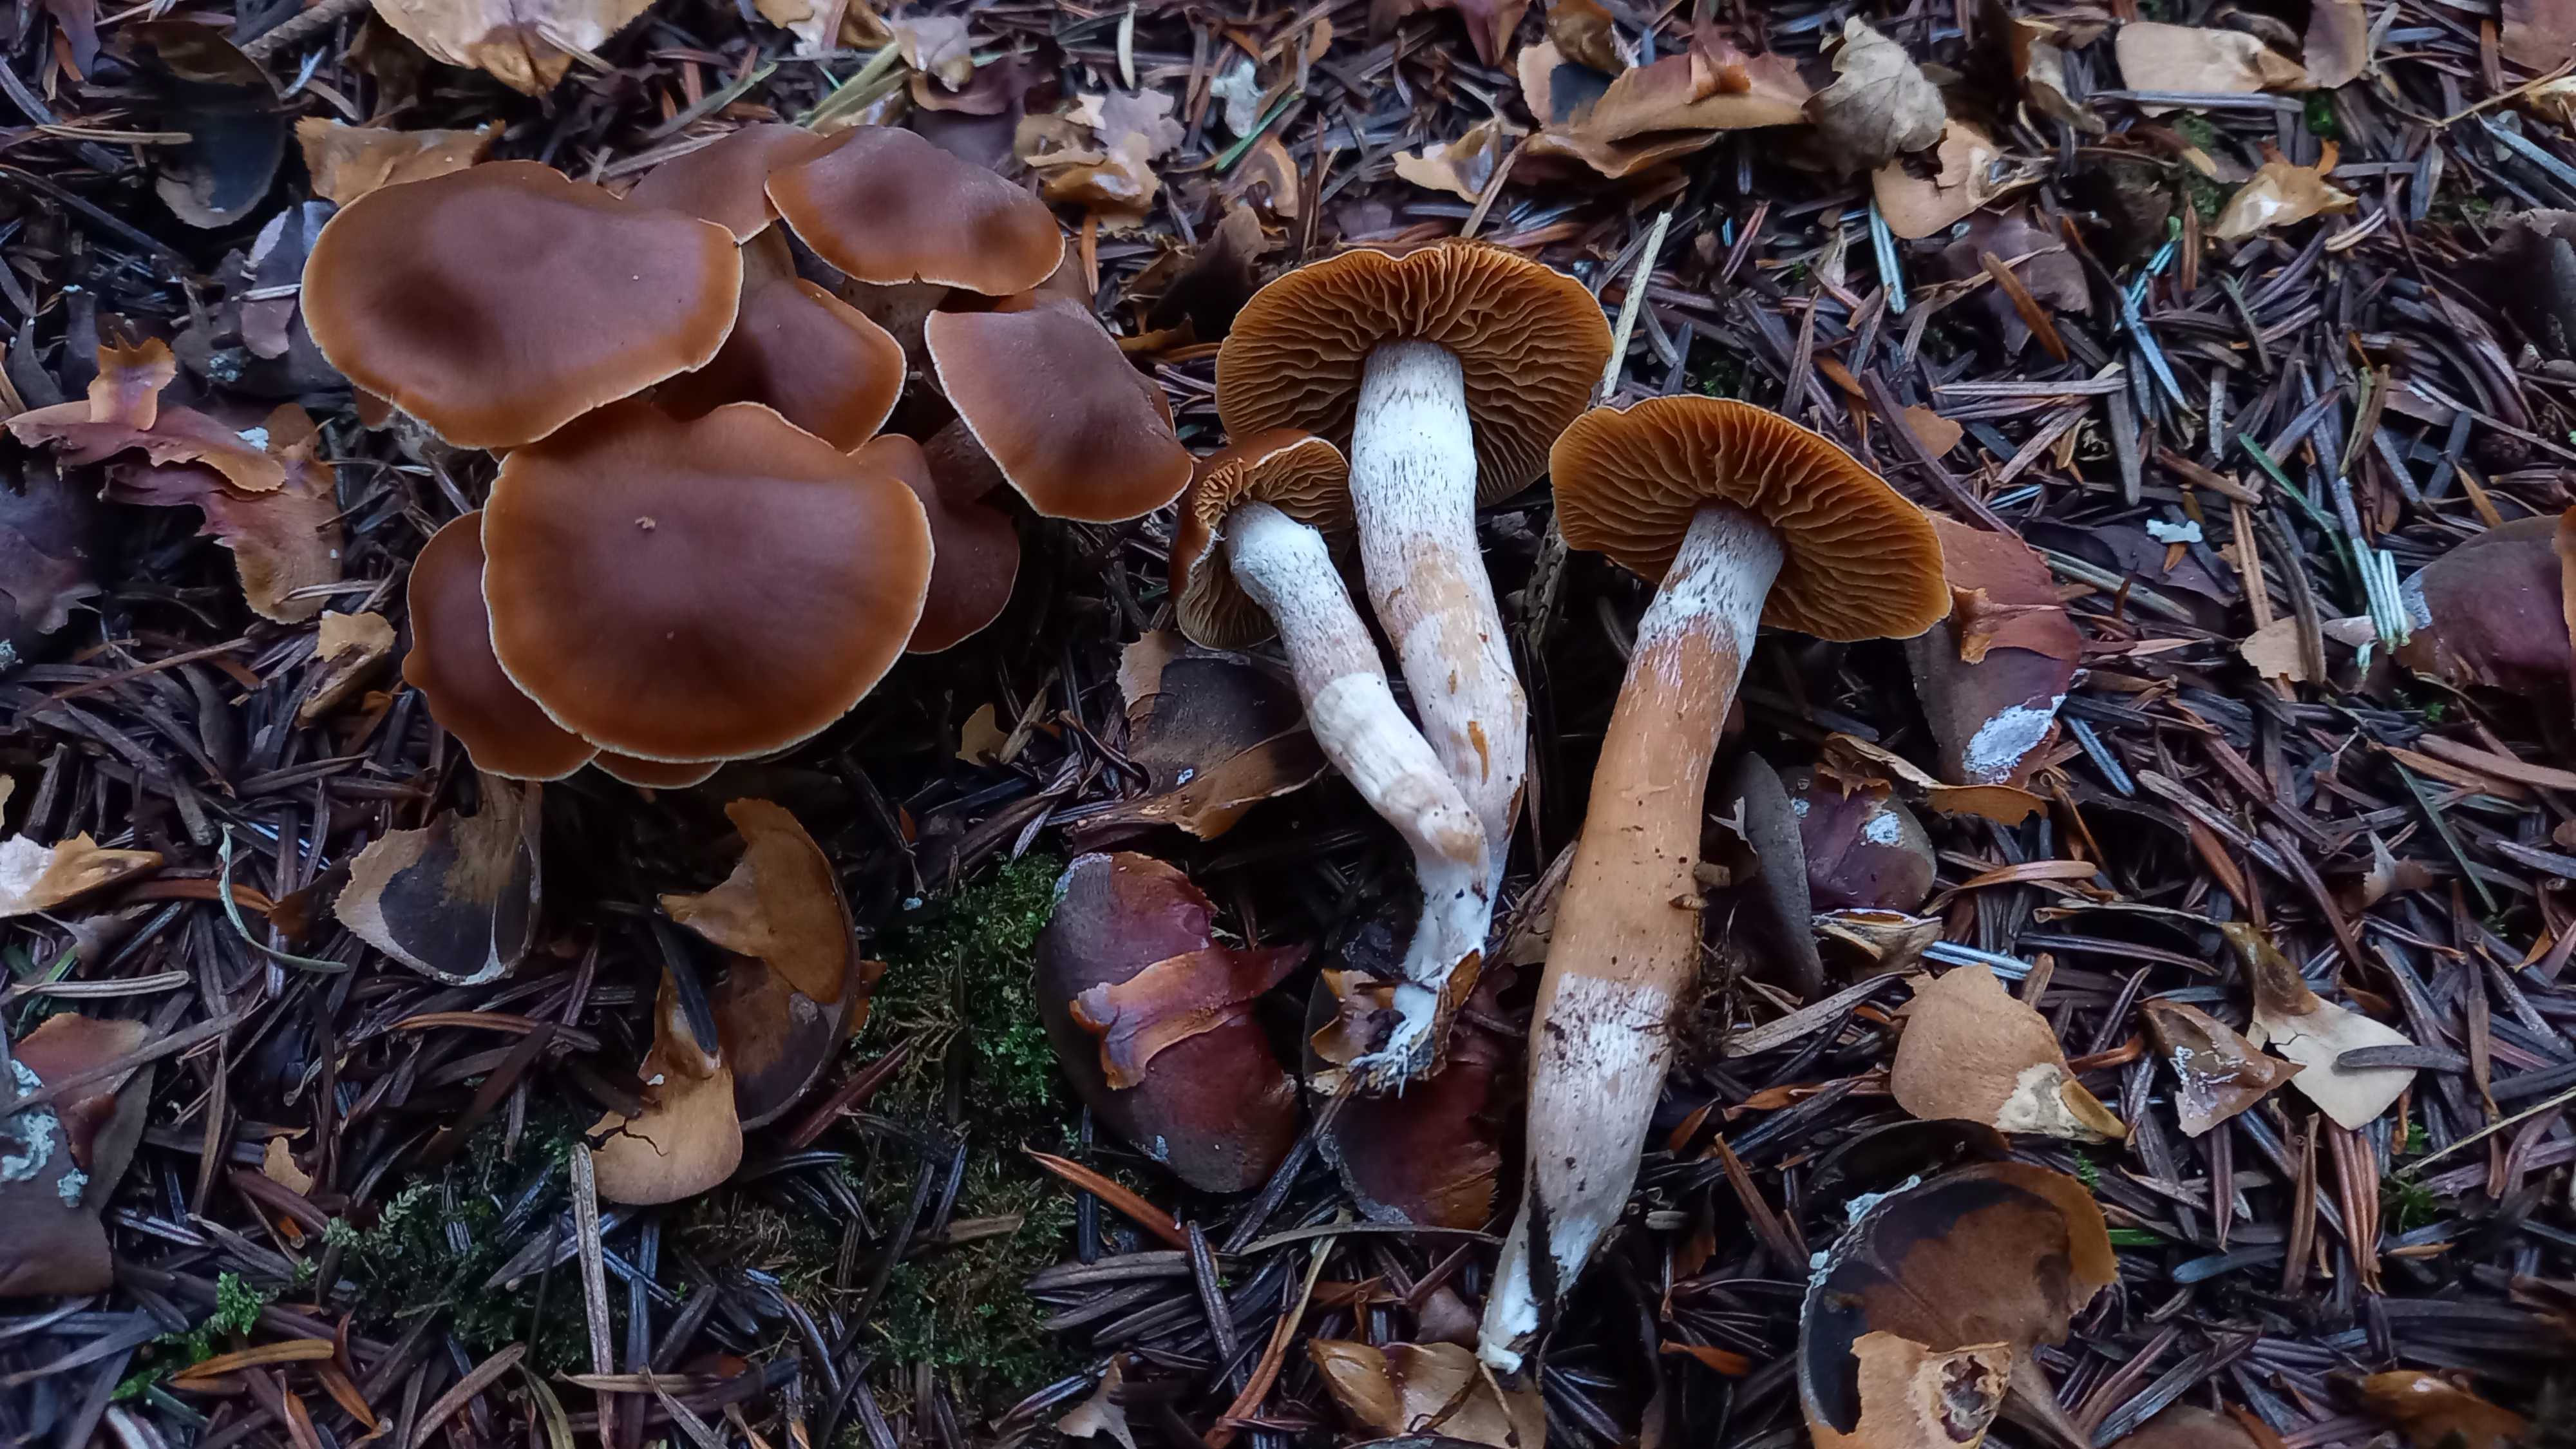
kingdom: Fungi
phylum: Basidiomycota
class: Agaricomycetes
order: Agaricales
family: Cortinariaceae
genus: Cortinarius
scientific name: Cortinarius
